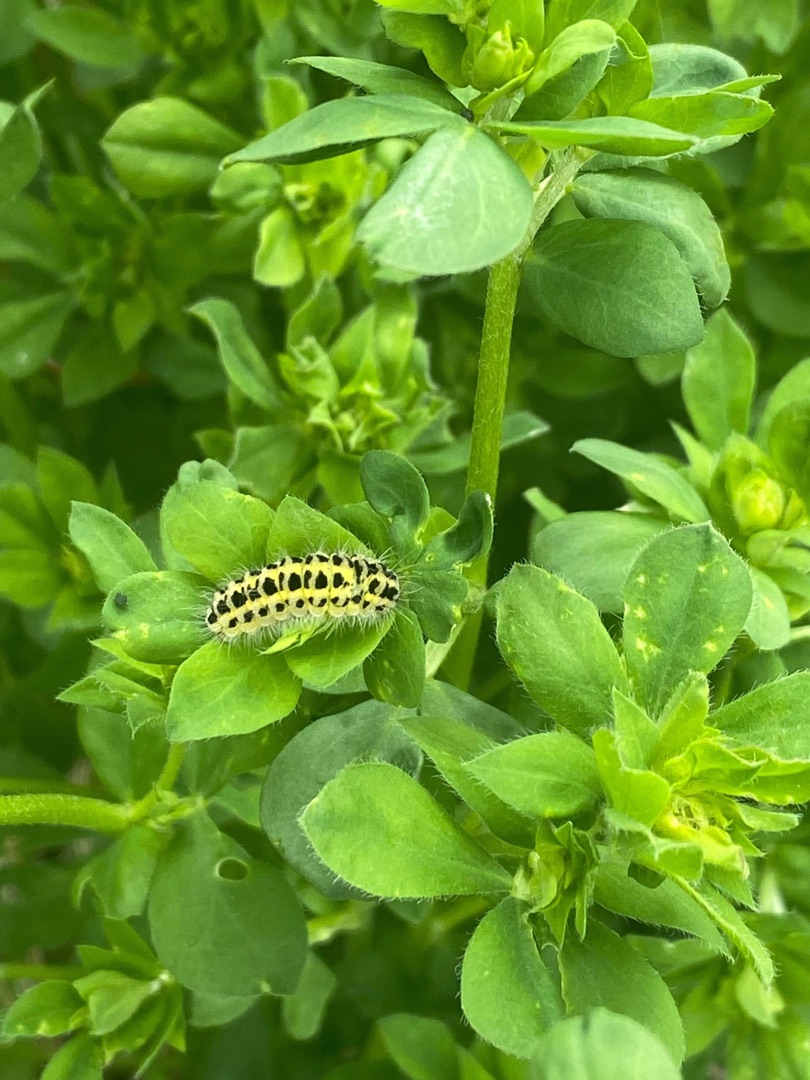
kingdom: Animalia
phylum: Arthropoda
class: Insecta
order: Lepidoptera
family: Zygaenidae
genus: Zygaena
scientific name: Zygaena filipendulae
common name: Seksplettet køllesværmer
